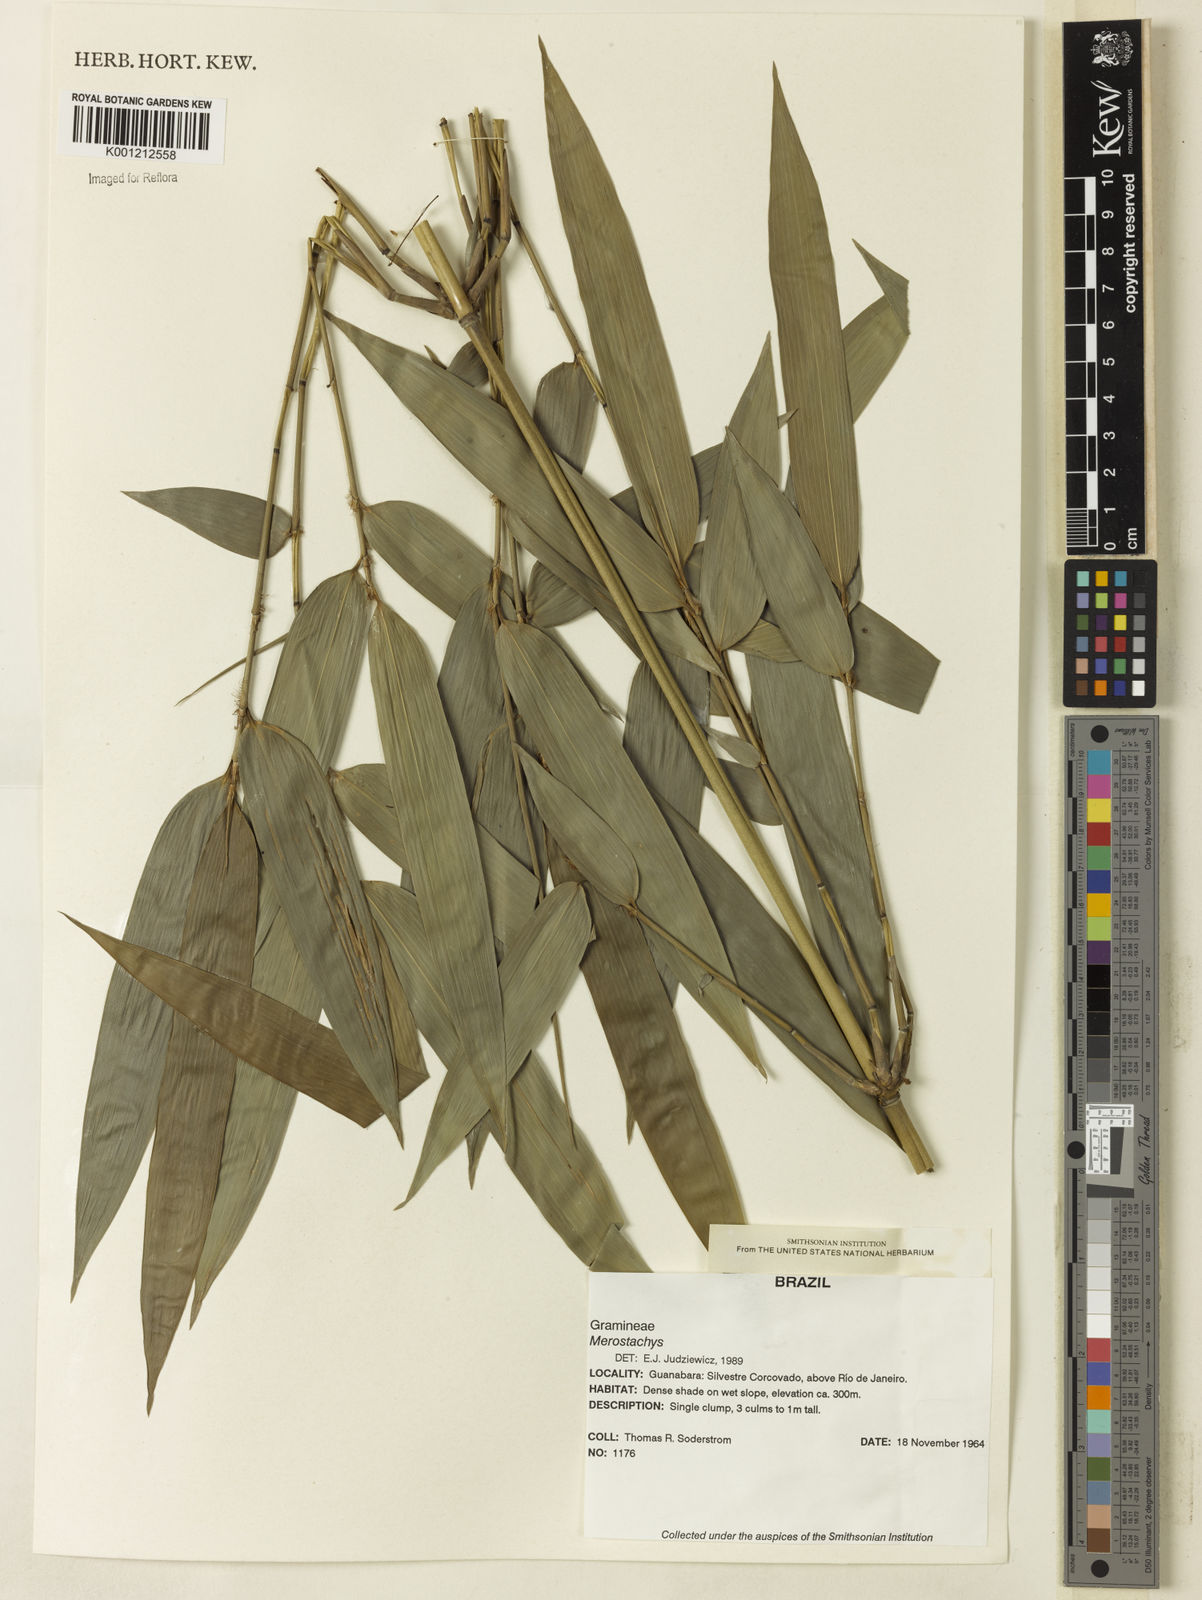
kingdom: Plantae
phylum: Tracheophyta
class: Liliopsida
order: Poales
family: Poaceae
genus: Merostachys
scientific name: Merostachys
